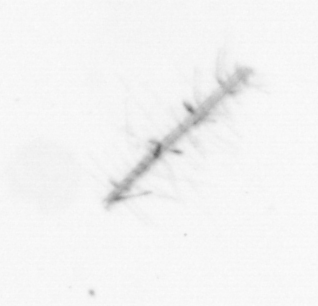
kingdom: Chromista
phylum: Ochrophyta
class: Bacillariophyceae
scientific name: Bacillariophyceae
